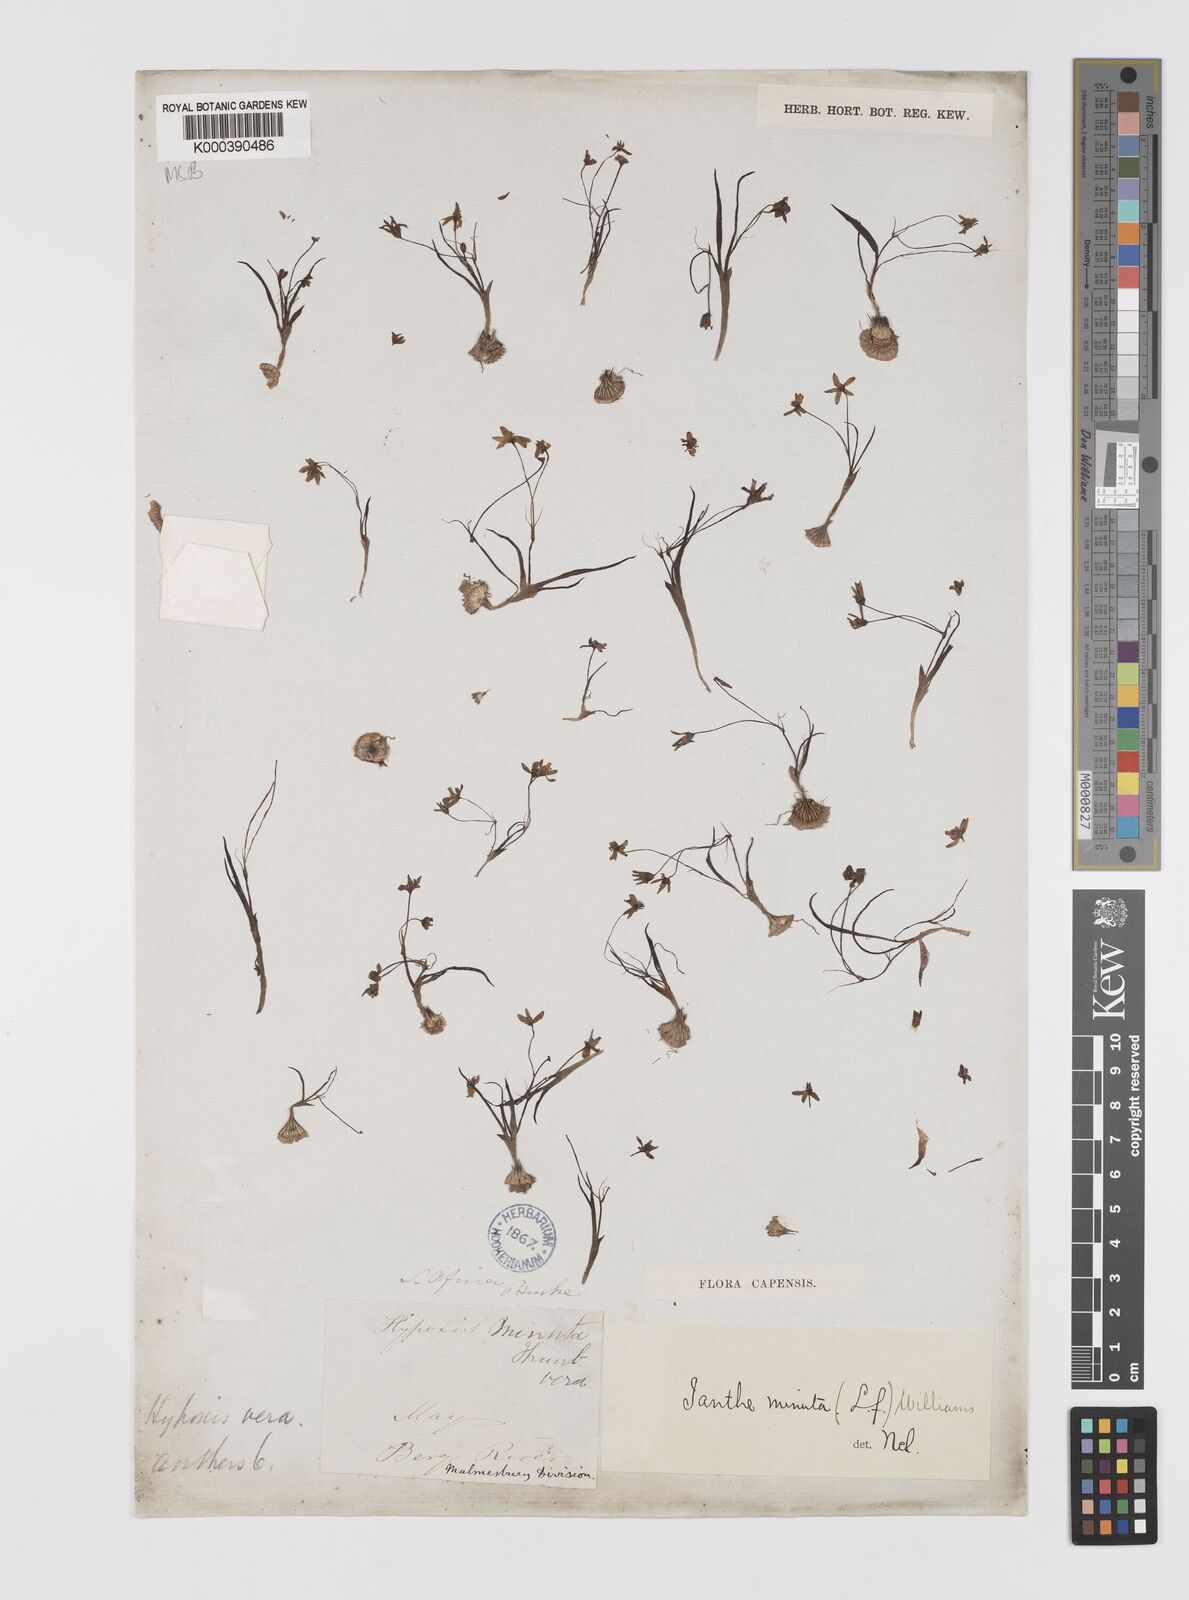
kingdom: Plantae
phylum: Tracheophyta
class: Liliopsida
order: Asparagales
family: Hypoxidaceae
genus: Pauridia
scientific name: Pauridia pygmaea
